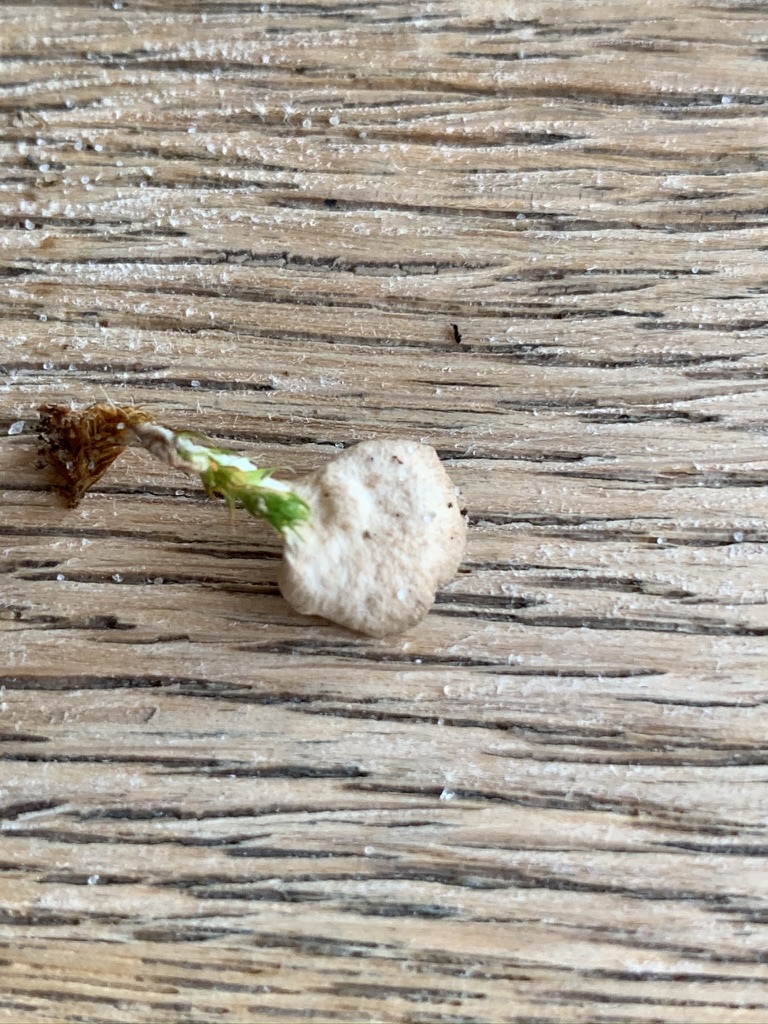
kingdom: Fungi
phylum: Basidiomycota
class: Agaricomycetes
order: Agaricales
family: Hygrophoraceae
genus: Arrhenia
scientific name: Arrhenia retiruga
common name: lille fontænehat
